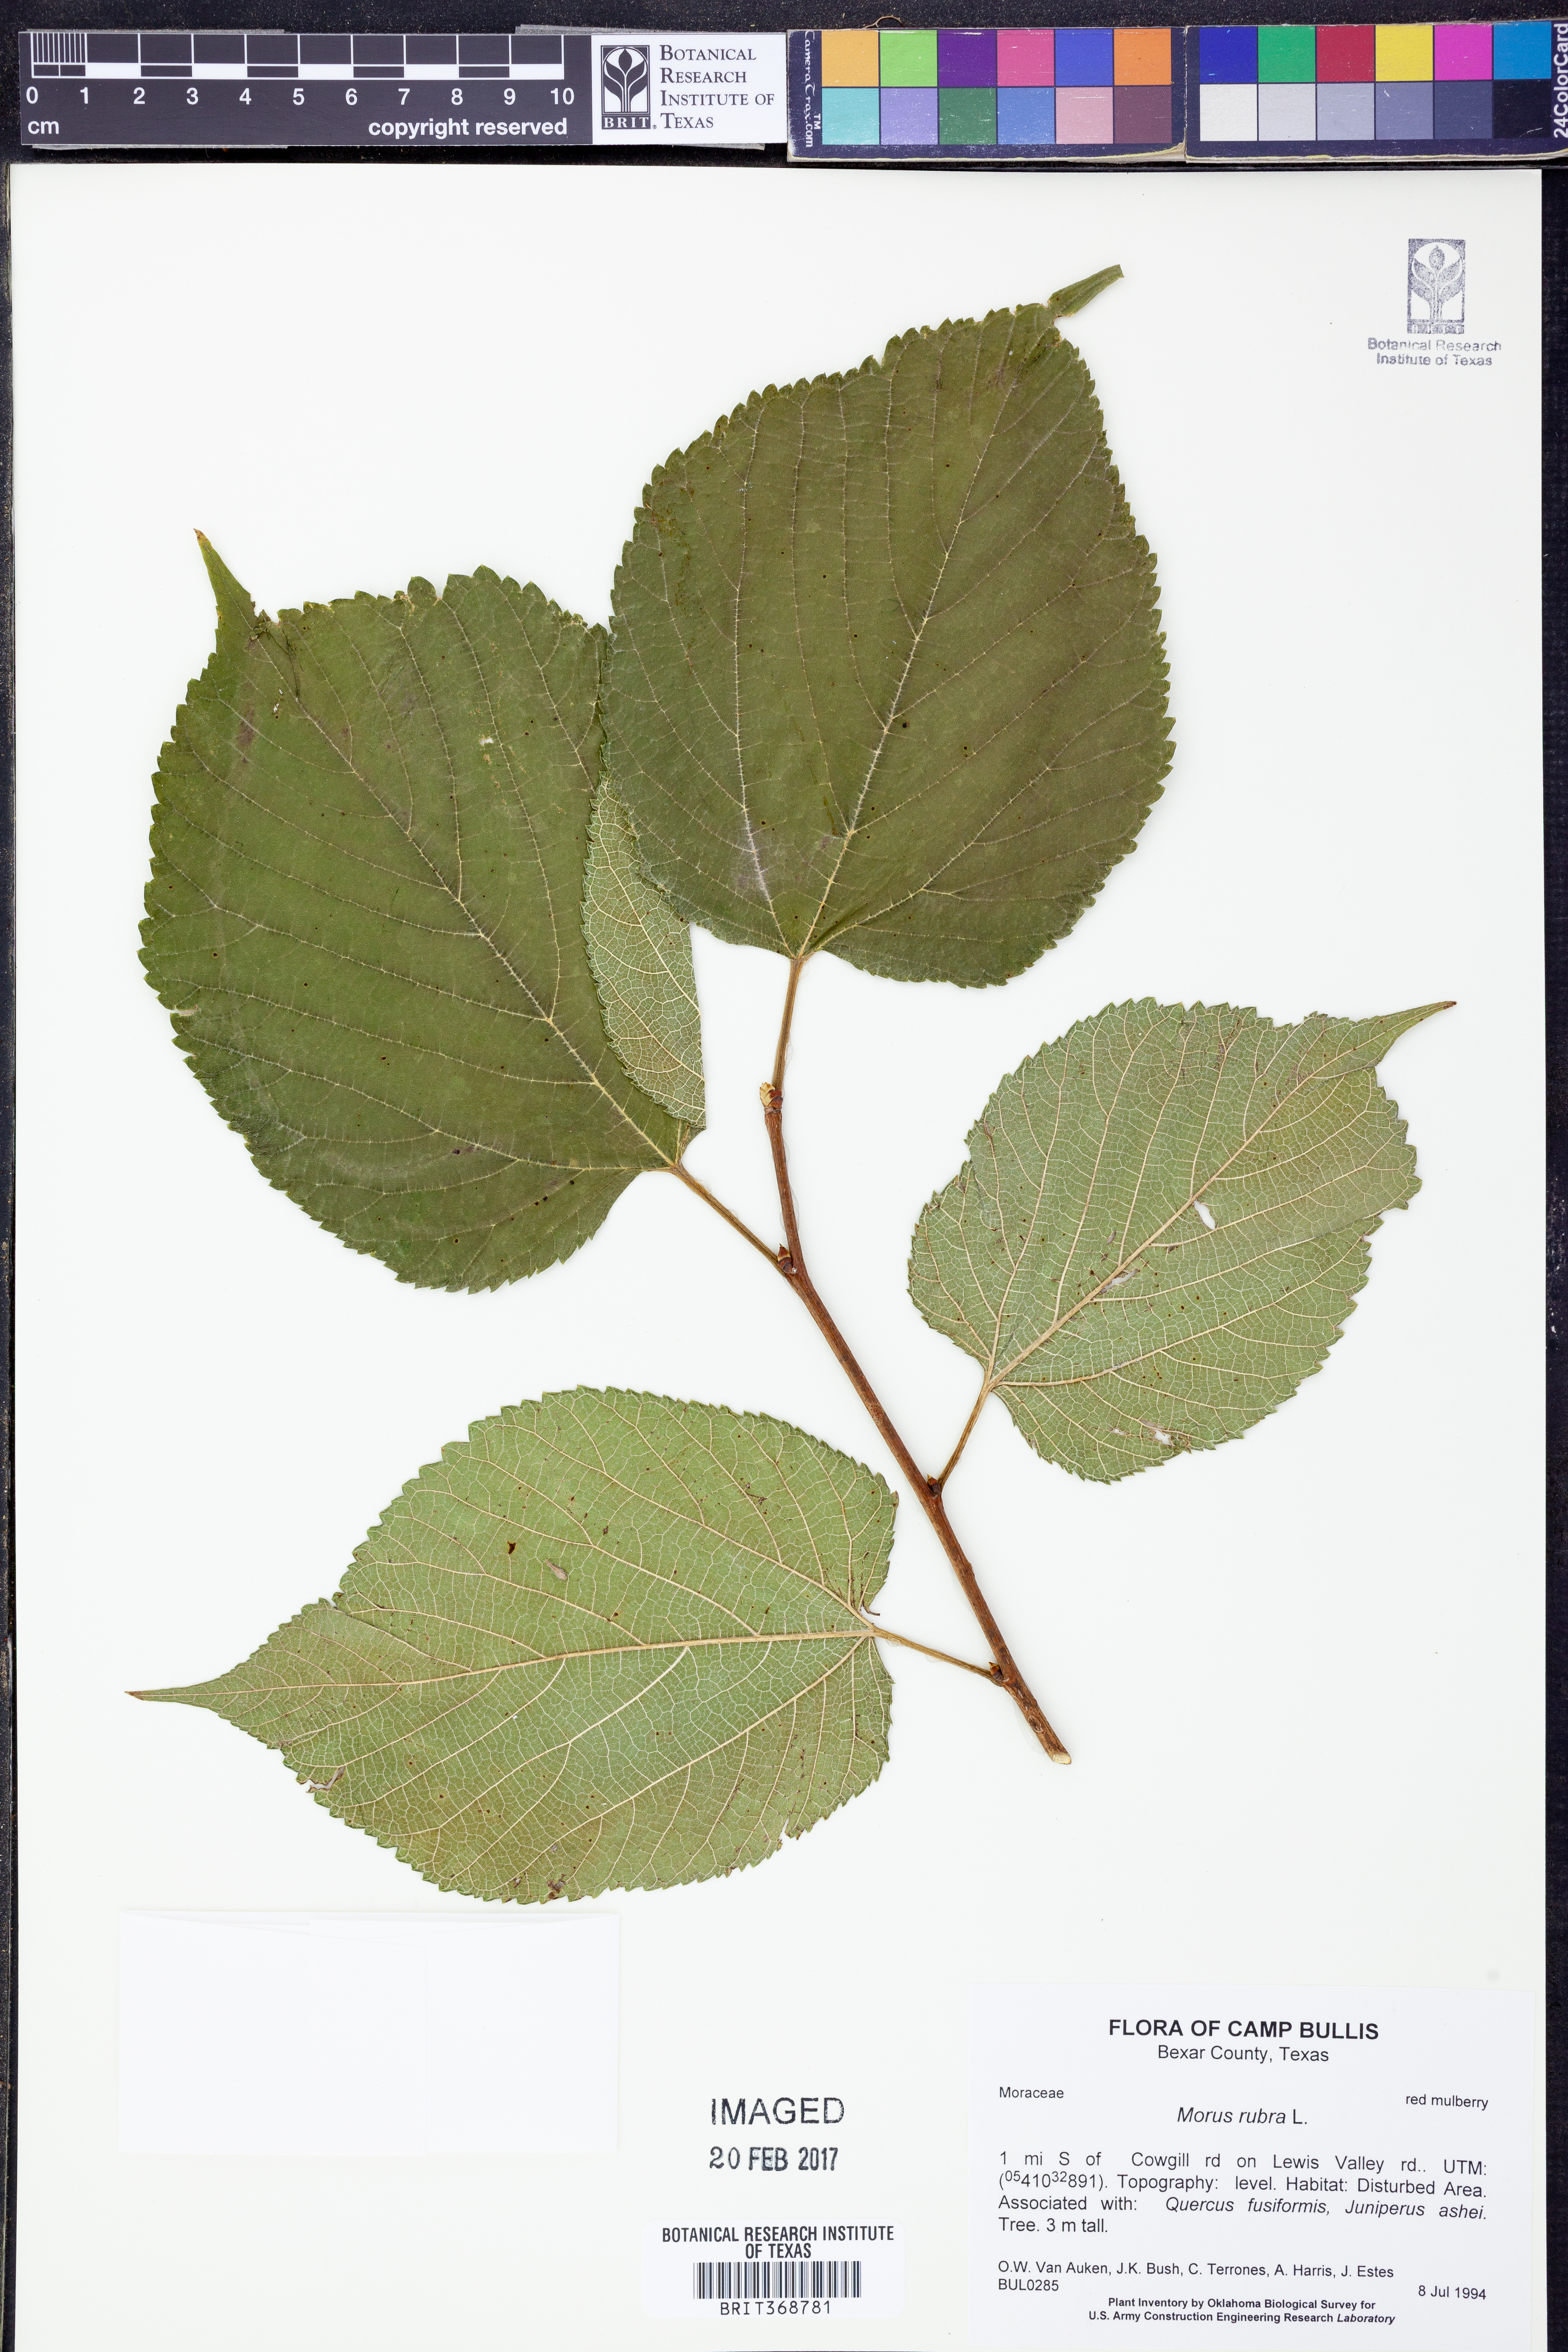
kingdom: Plantae
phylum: Tracheophyta
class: Magnoliopsida
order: Rosales
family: Moraceae
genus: Morus
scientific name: Morus rubra
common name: Red mulberry
